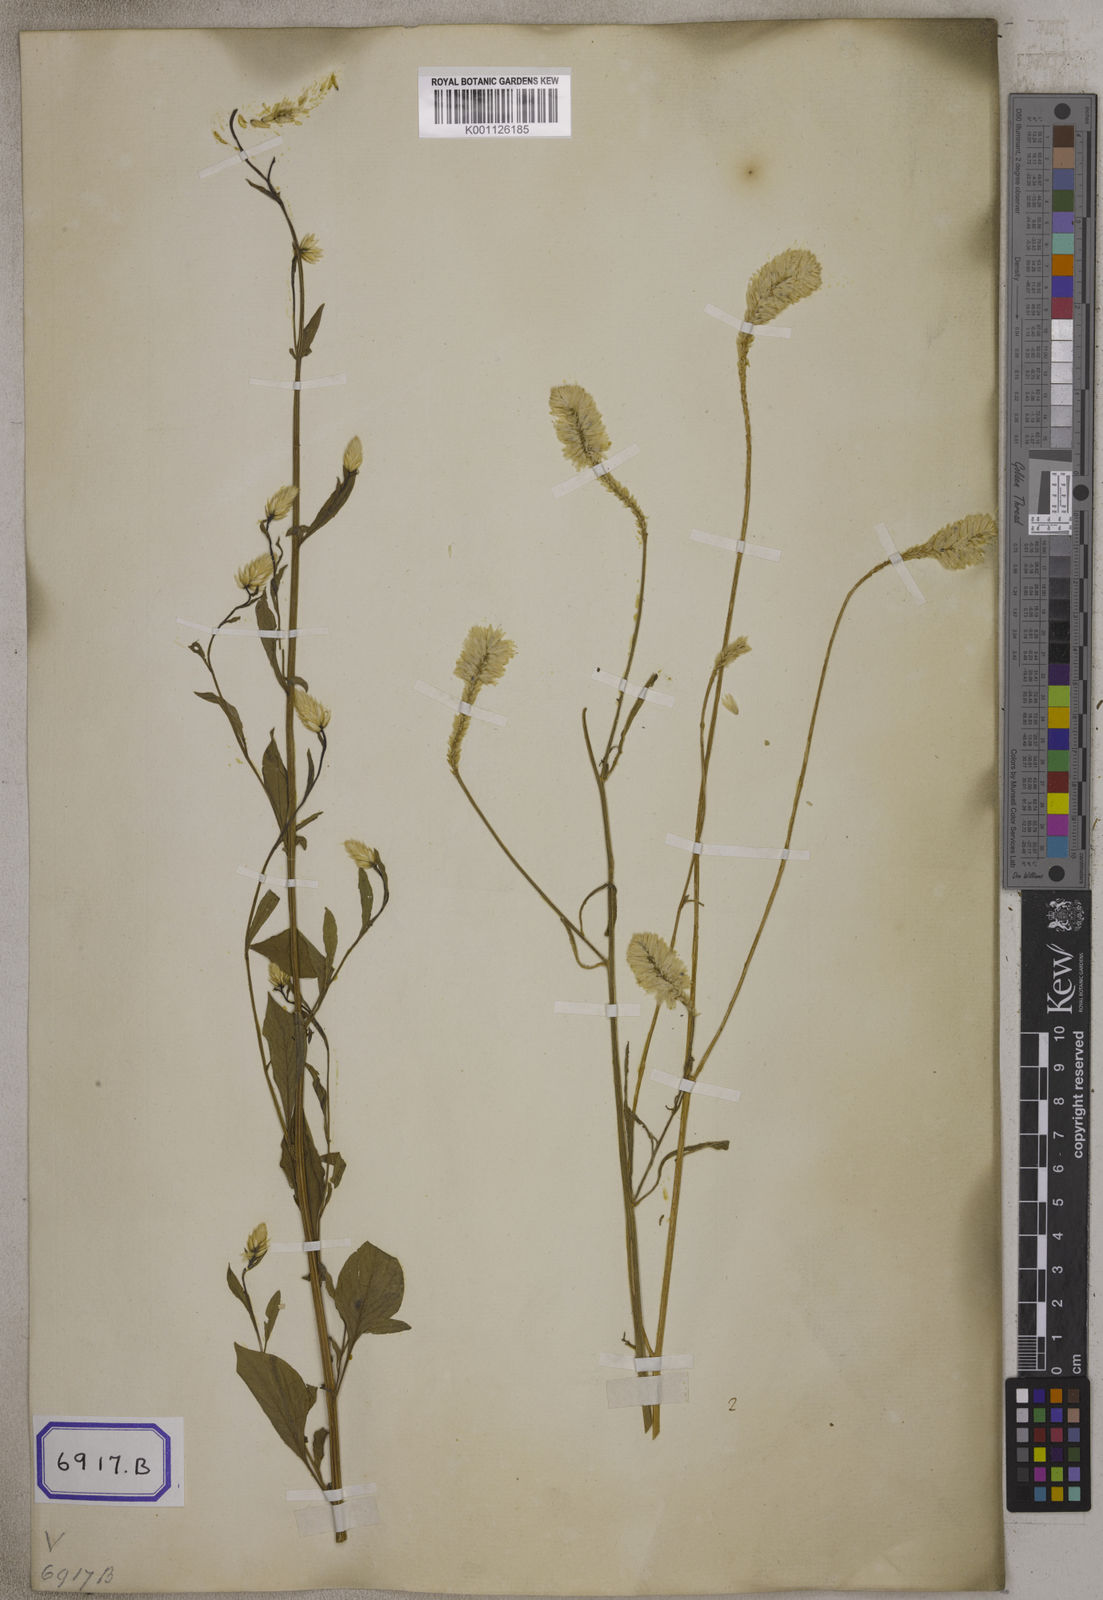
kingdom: Plantae
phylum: Tracheophyta
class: Magnoliopsida
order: Caryophyllales
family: Amaranthaceae
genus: Celosia
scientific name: Celosia argentea
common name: Feather cockscomb
